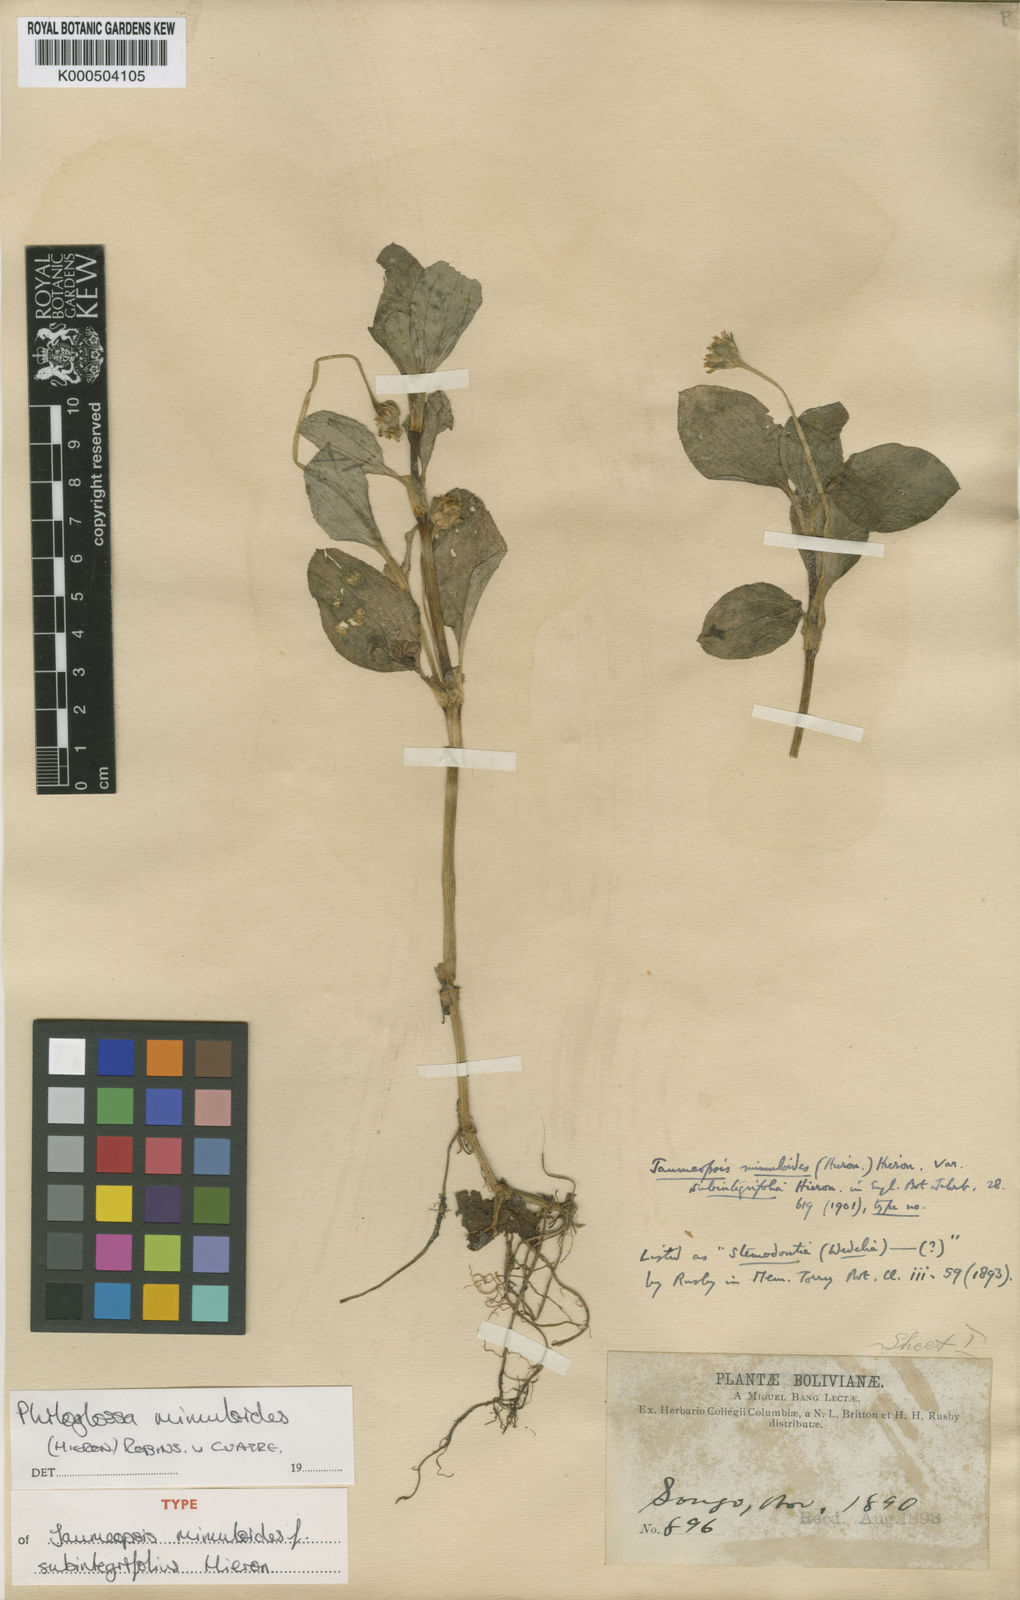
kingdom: Plantae
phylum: Tracheophyta
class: Magnoliopsida
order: Asterales
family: Asteraceae
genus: Philoglossa
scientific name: Philoglossa mimuloides
